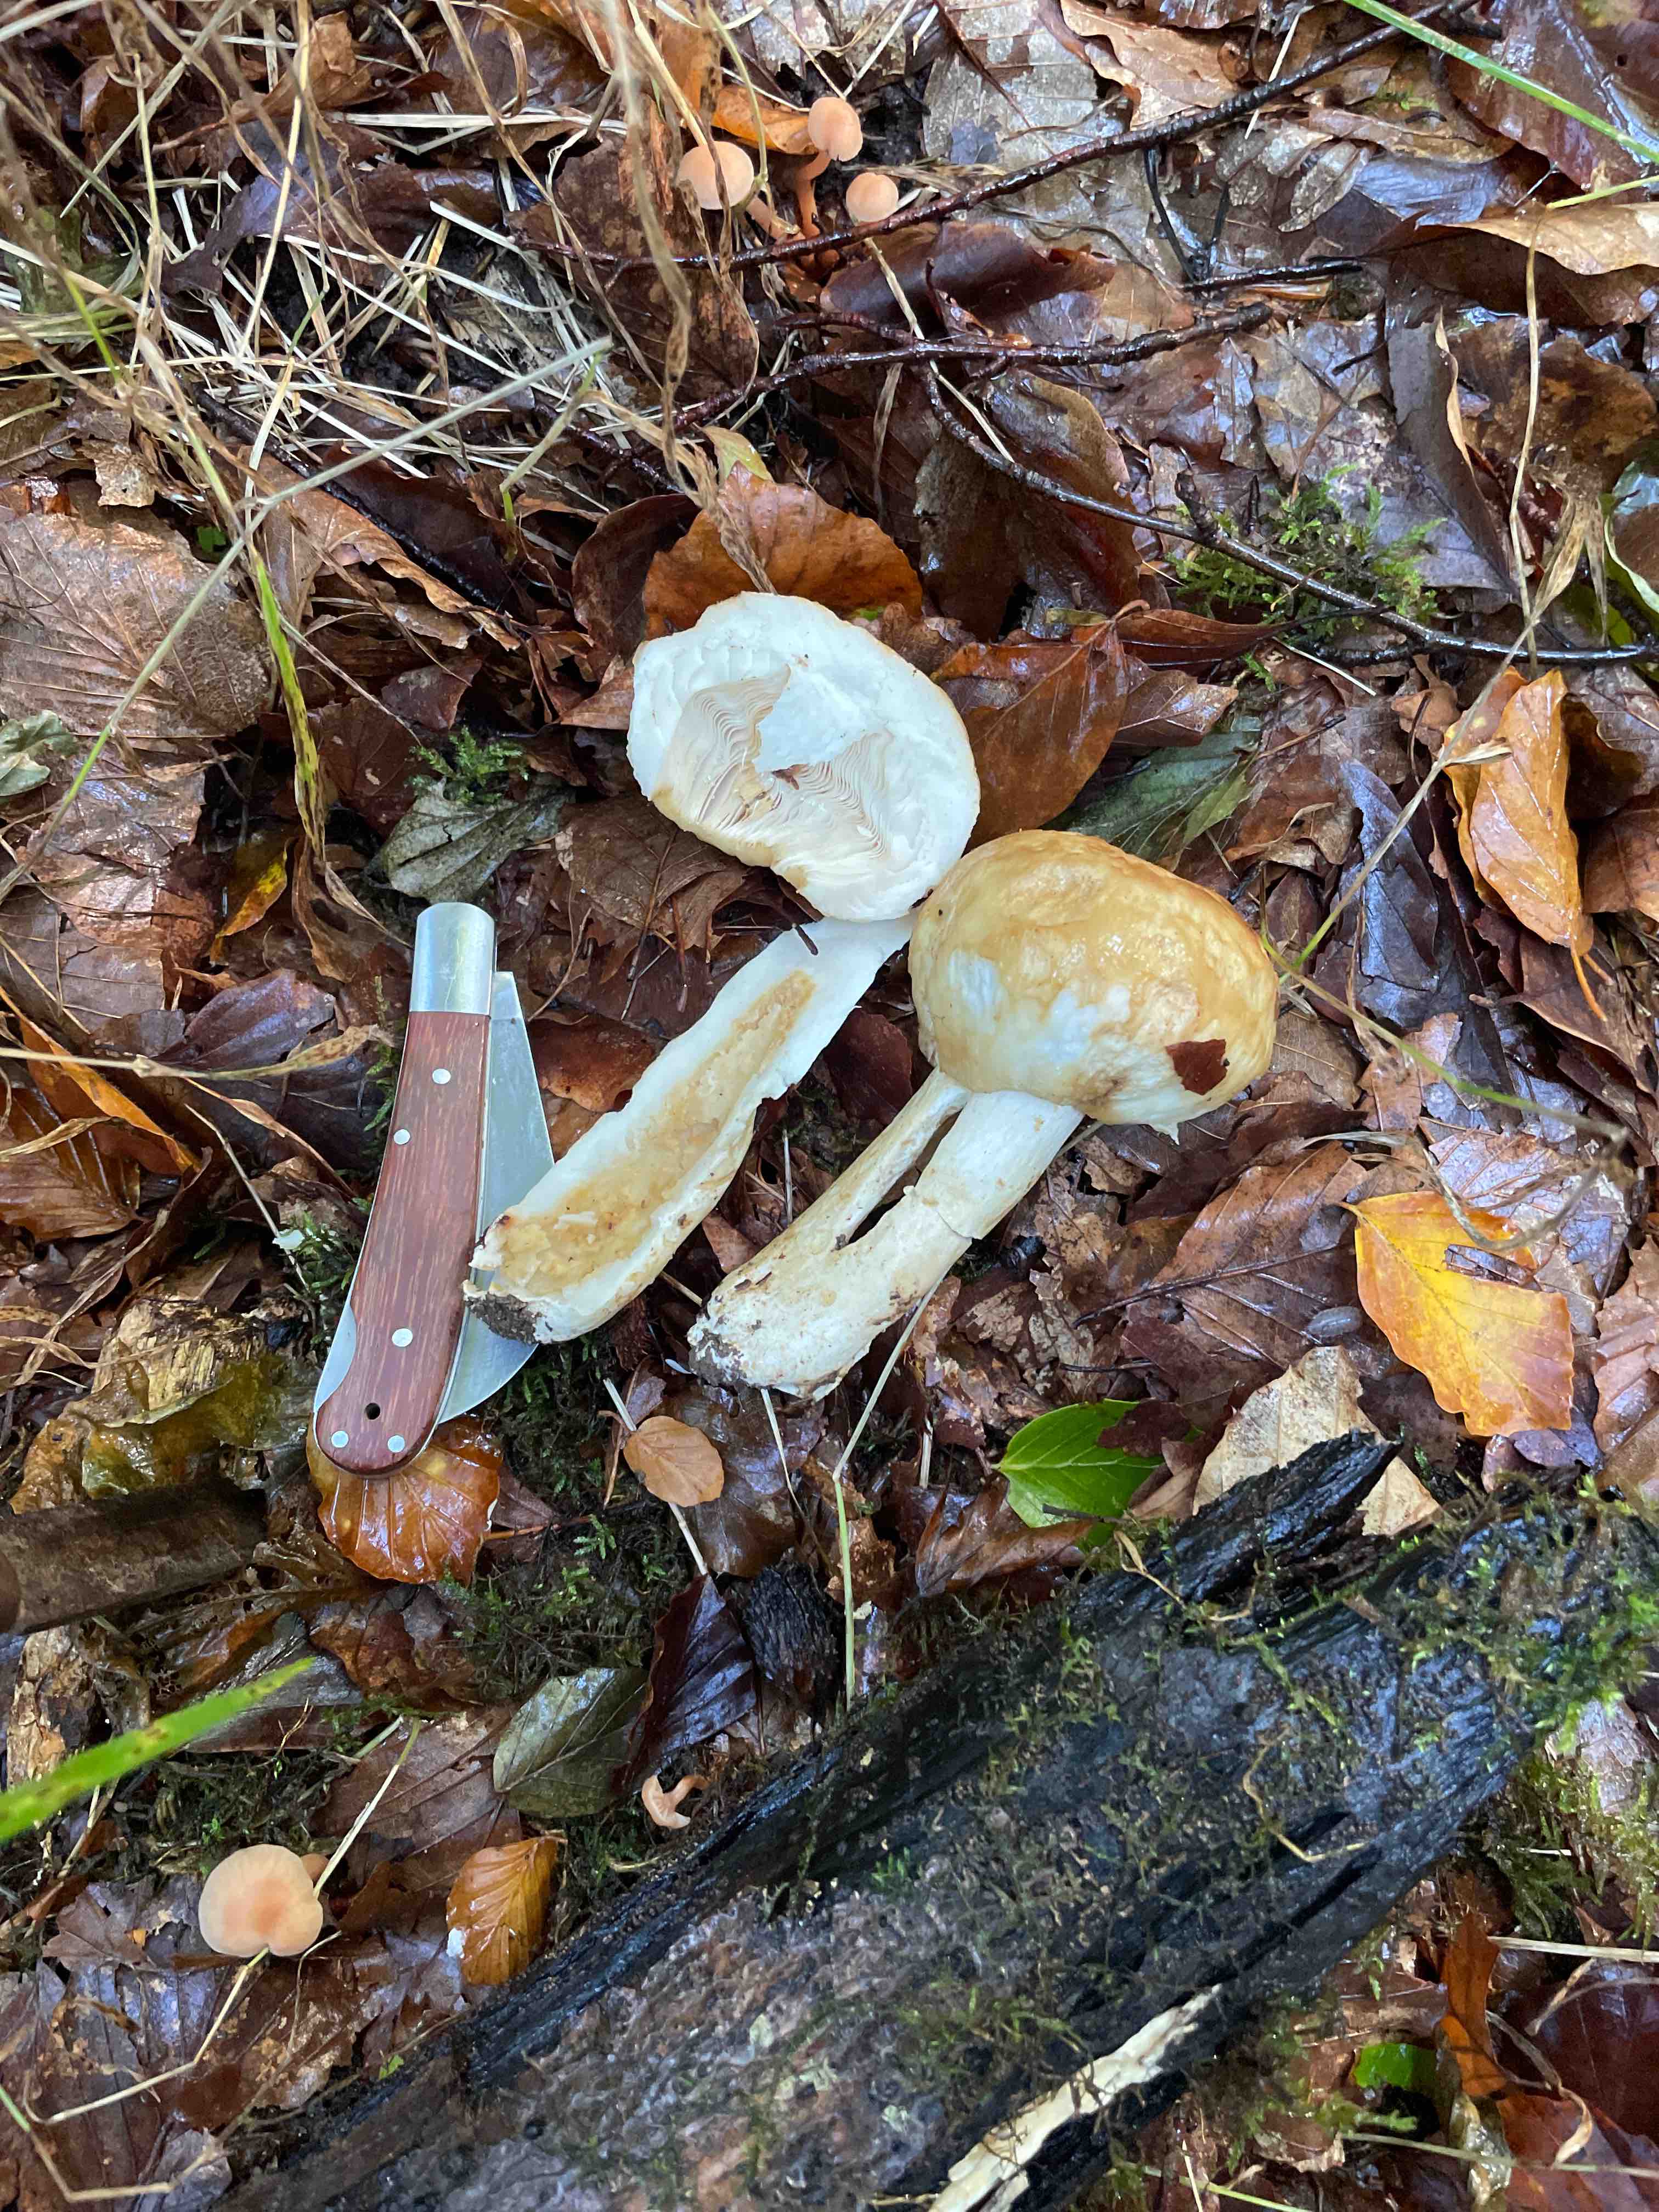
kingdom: Fungi
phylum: Basidiomycota
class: Agaricomycetes
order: Russulales
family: Russulaceae
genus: Russula
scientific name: Russula
